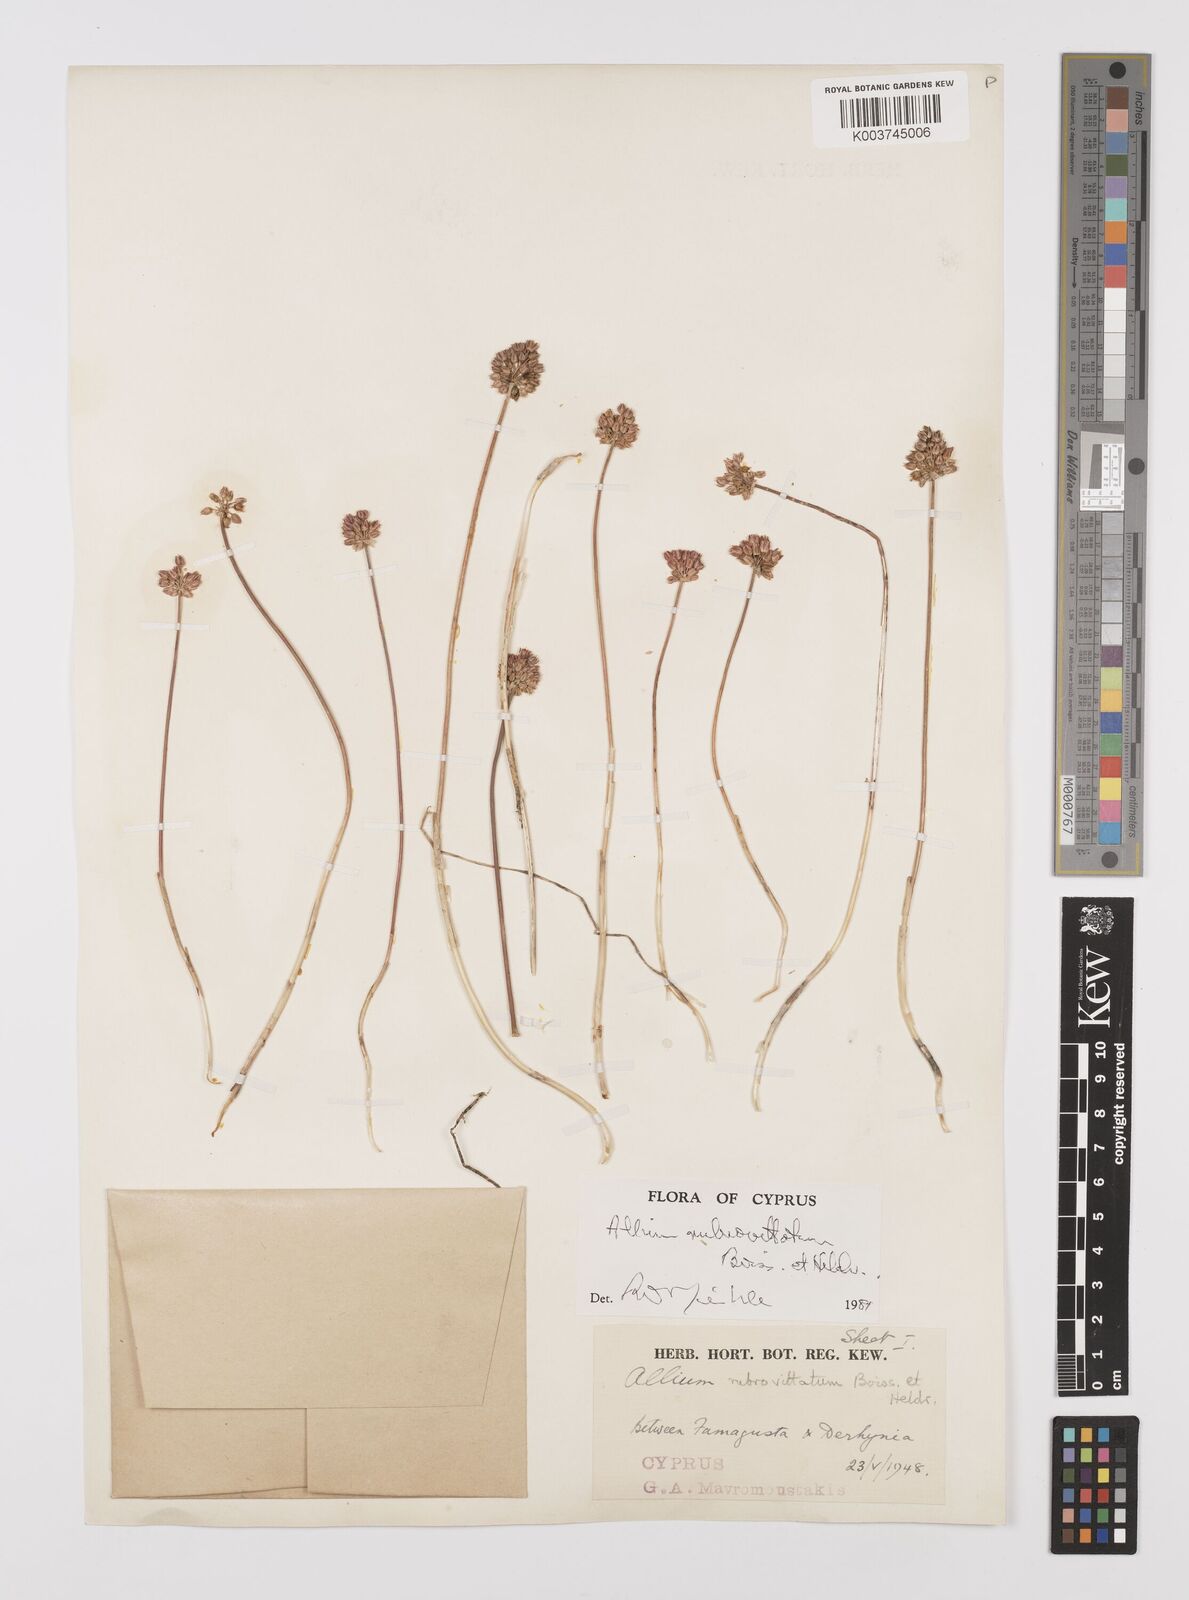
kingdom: Plantae
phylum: Tracheophyta
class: Liliopsida
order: Asparagales
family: Amaryllidaceae
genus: Allium
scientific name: Allium rubrovittatum
